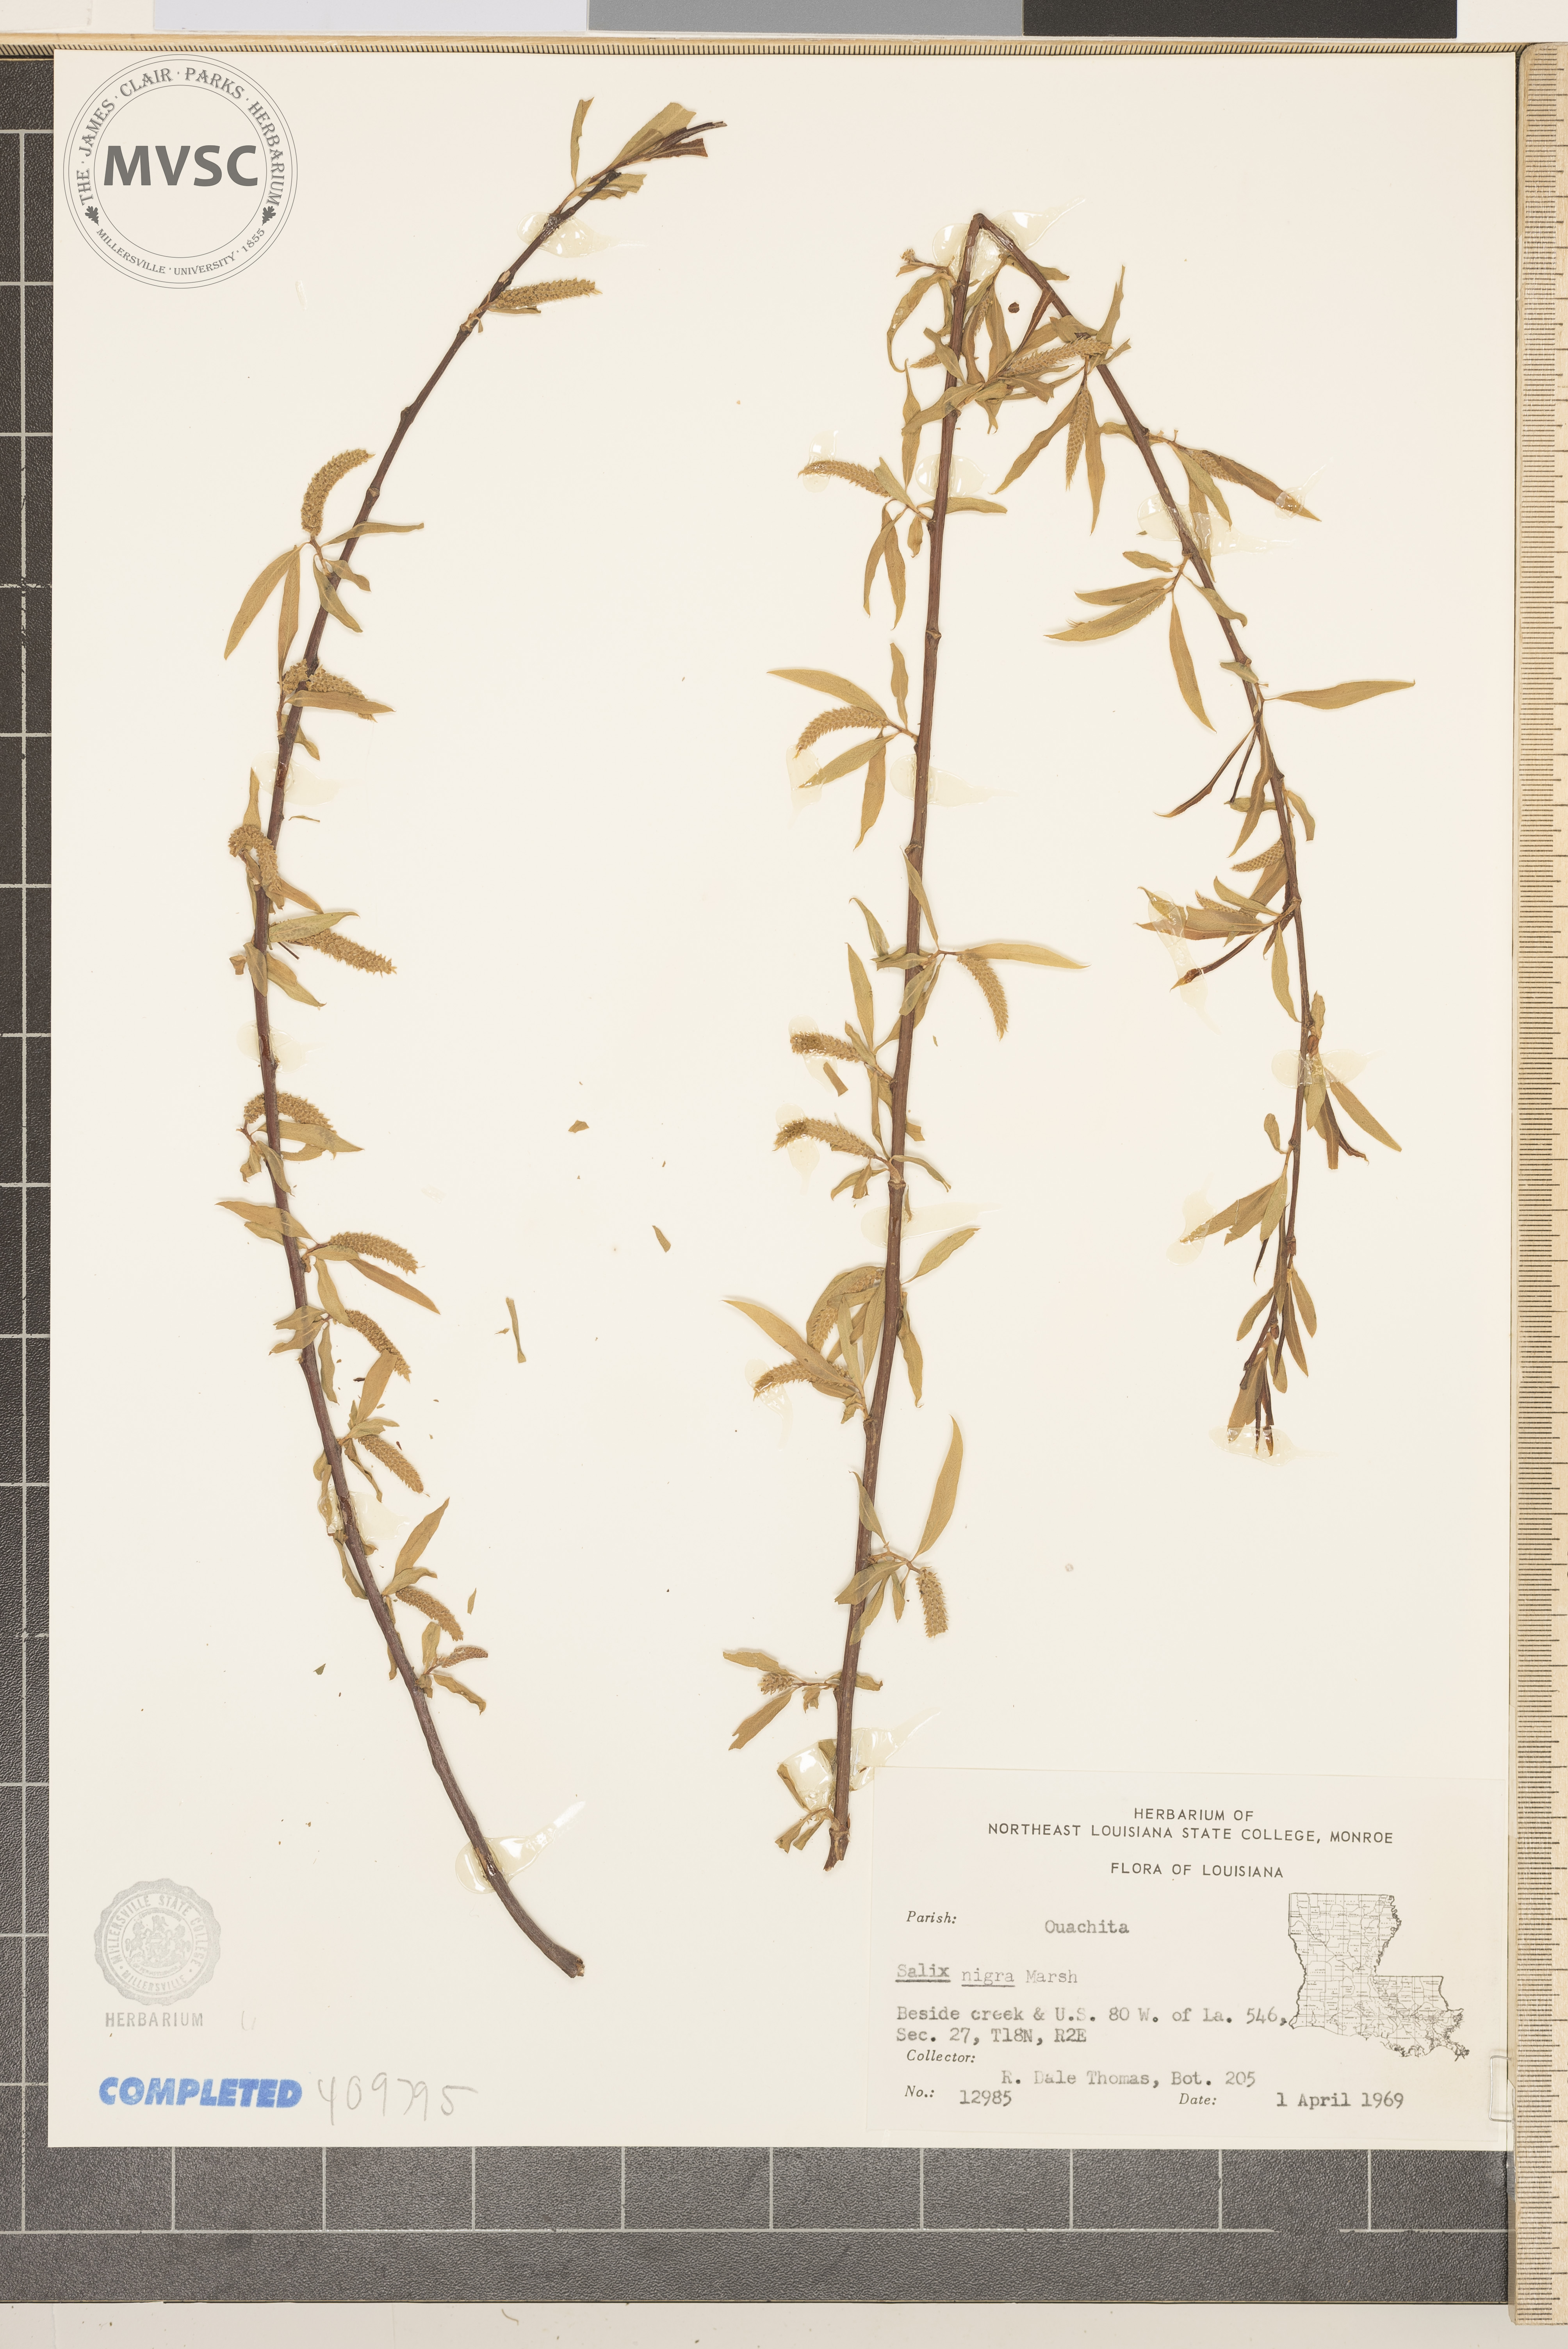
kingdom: Plantae
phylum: Tracheophyta
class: Magnoliopsida
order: Malpighiales
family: Salicaceae
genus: Salix
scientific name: Salix nigra
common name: Black willow
